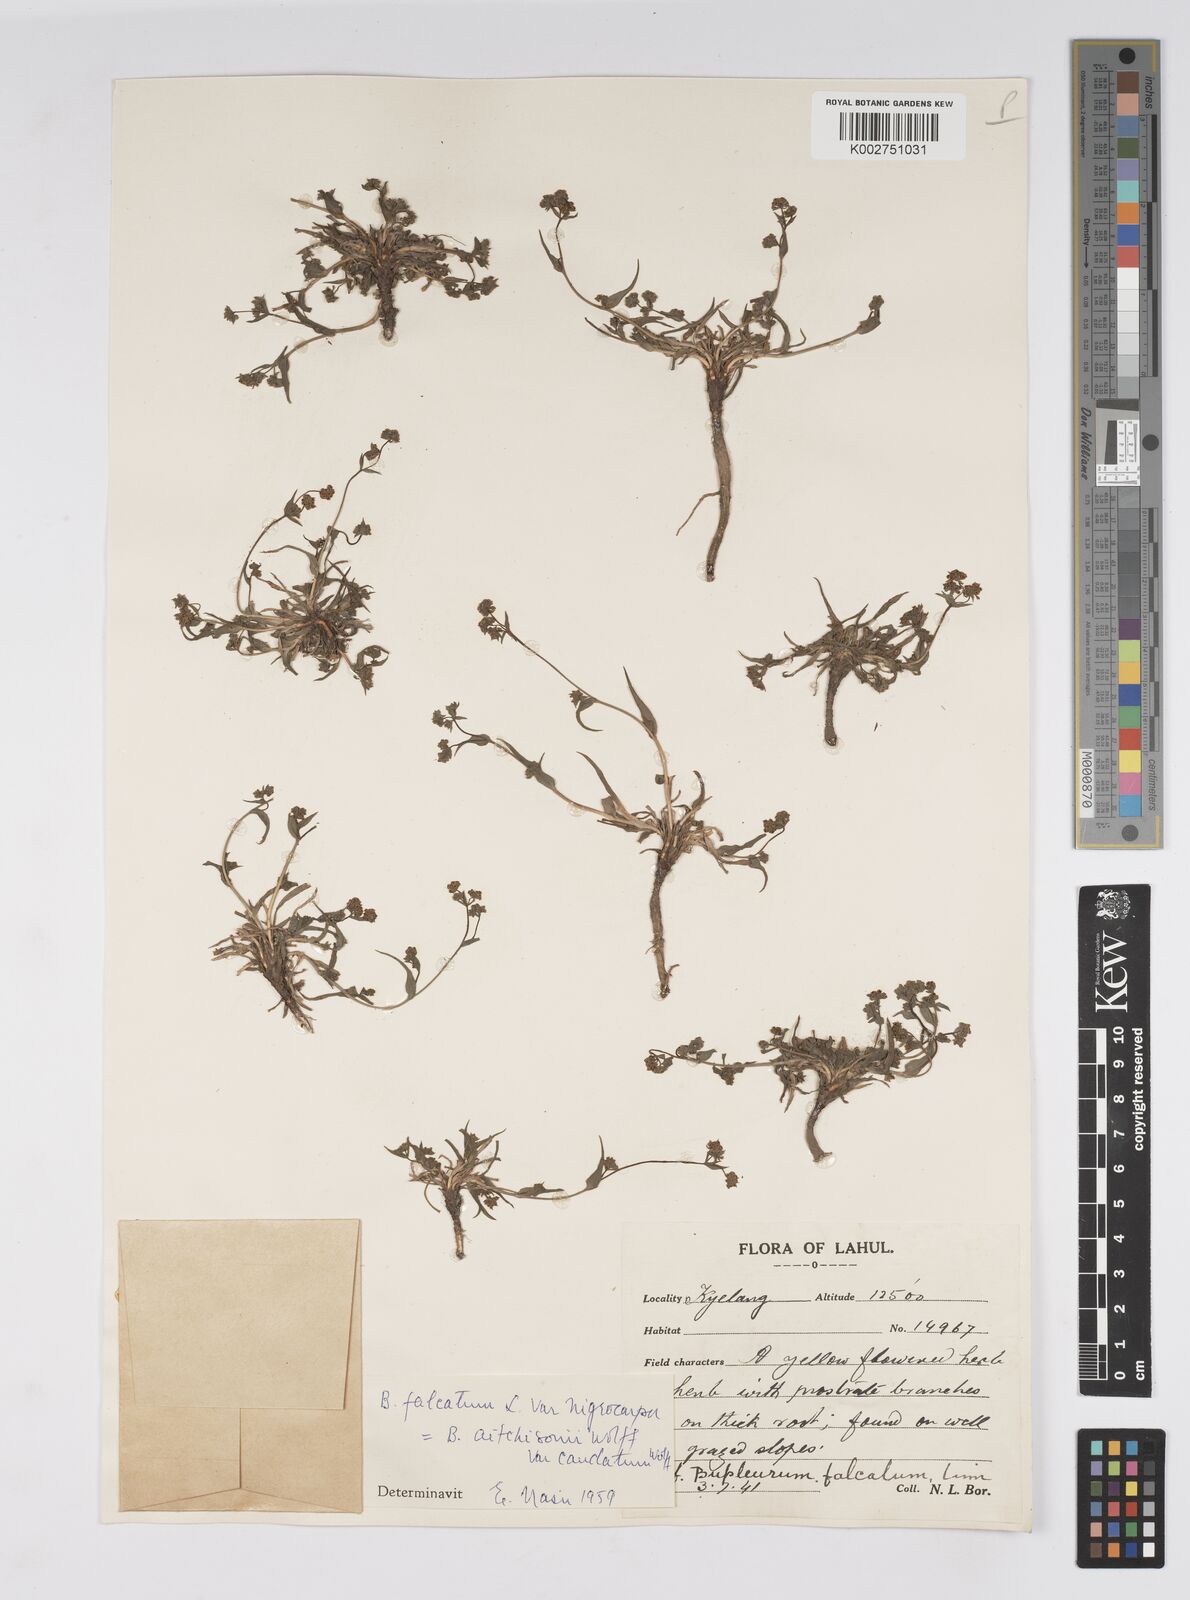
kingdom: Plantae
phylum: Tracheophyta
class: Magnoliopsida
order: Apiales
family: Apiaceae
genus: Bupleurum
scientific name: Bupleurum falcatum
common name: Sickle-leaved hare's-ear
